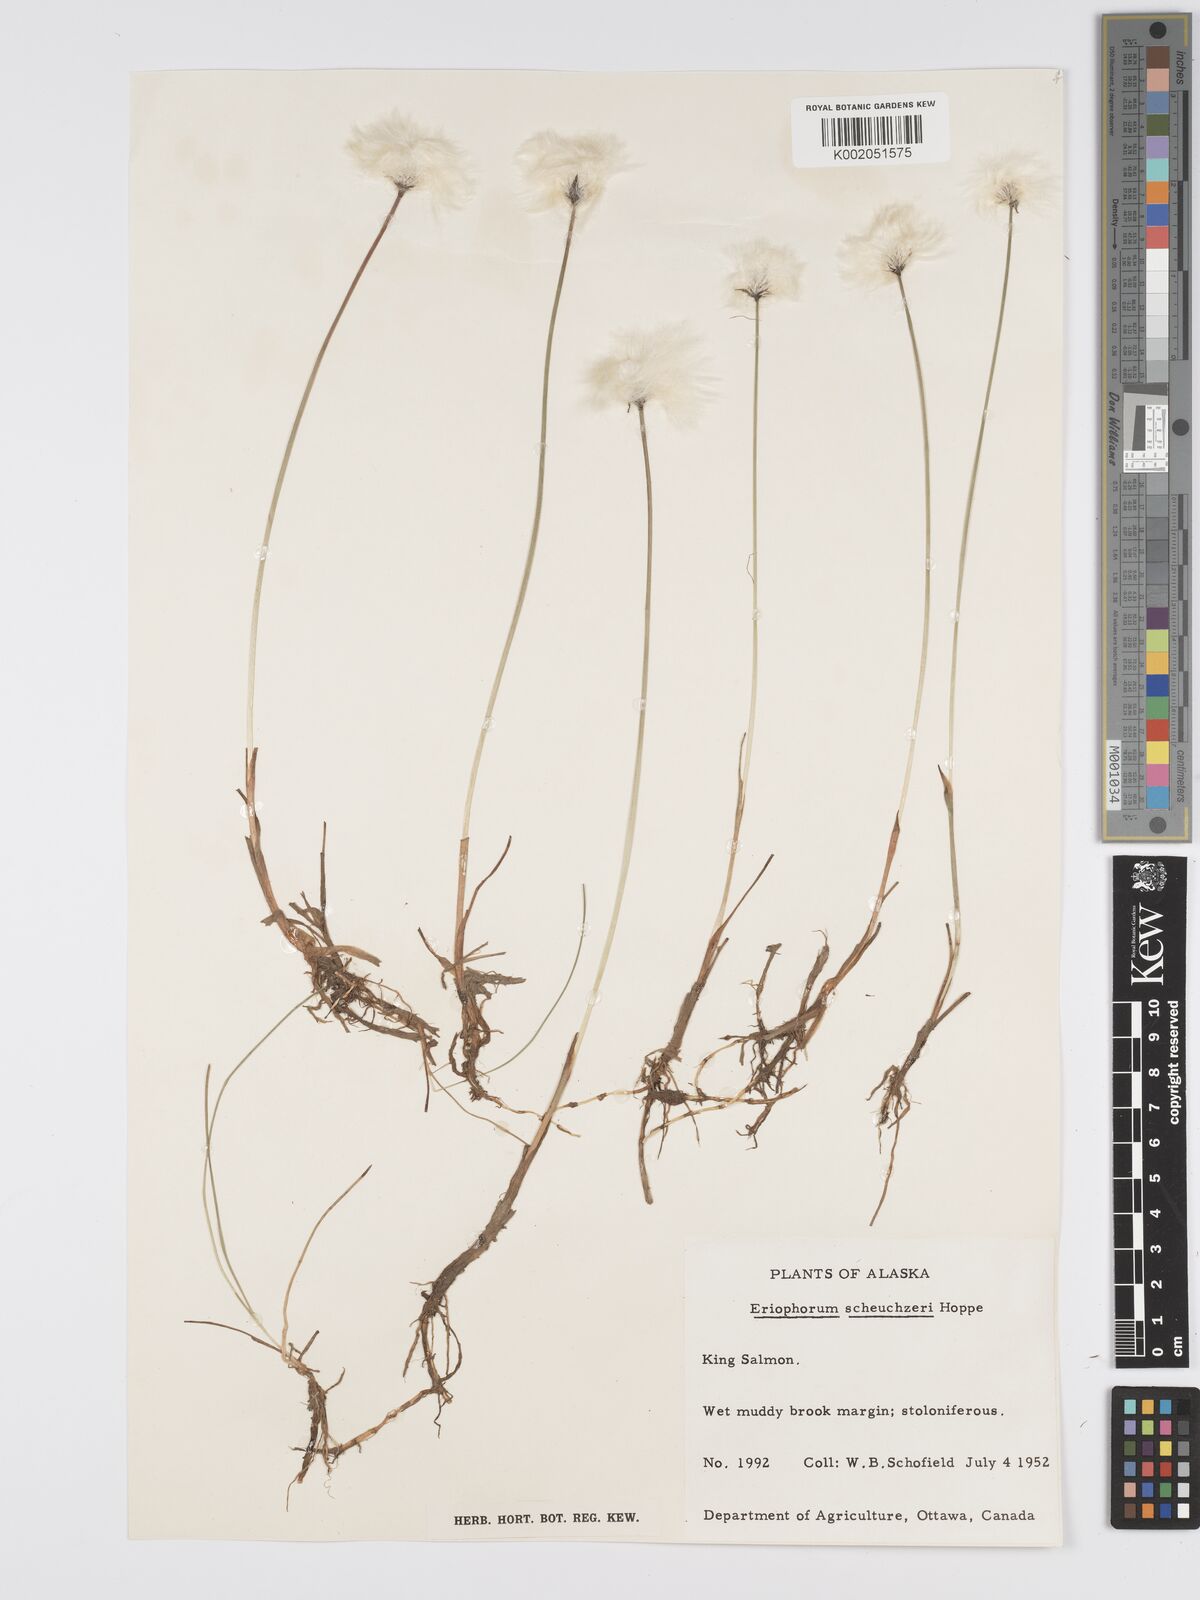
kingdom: Plantae
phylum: Tracheophyta
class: Liliopsida
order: Poales
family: Cyperaceae
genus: Eriophorum
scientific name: Eriophorum scheuchzeri
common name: Scheuchzer's cottongrass
